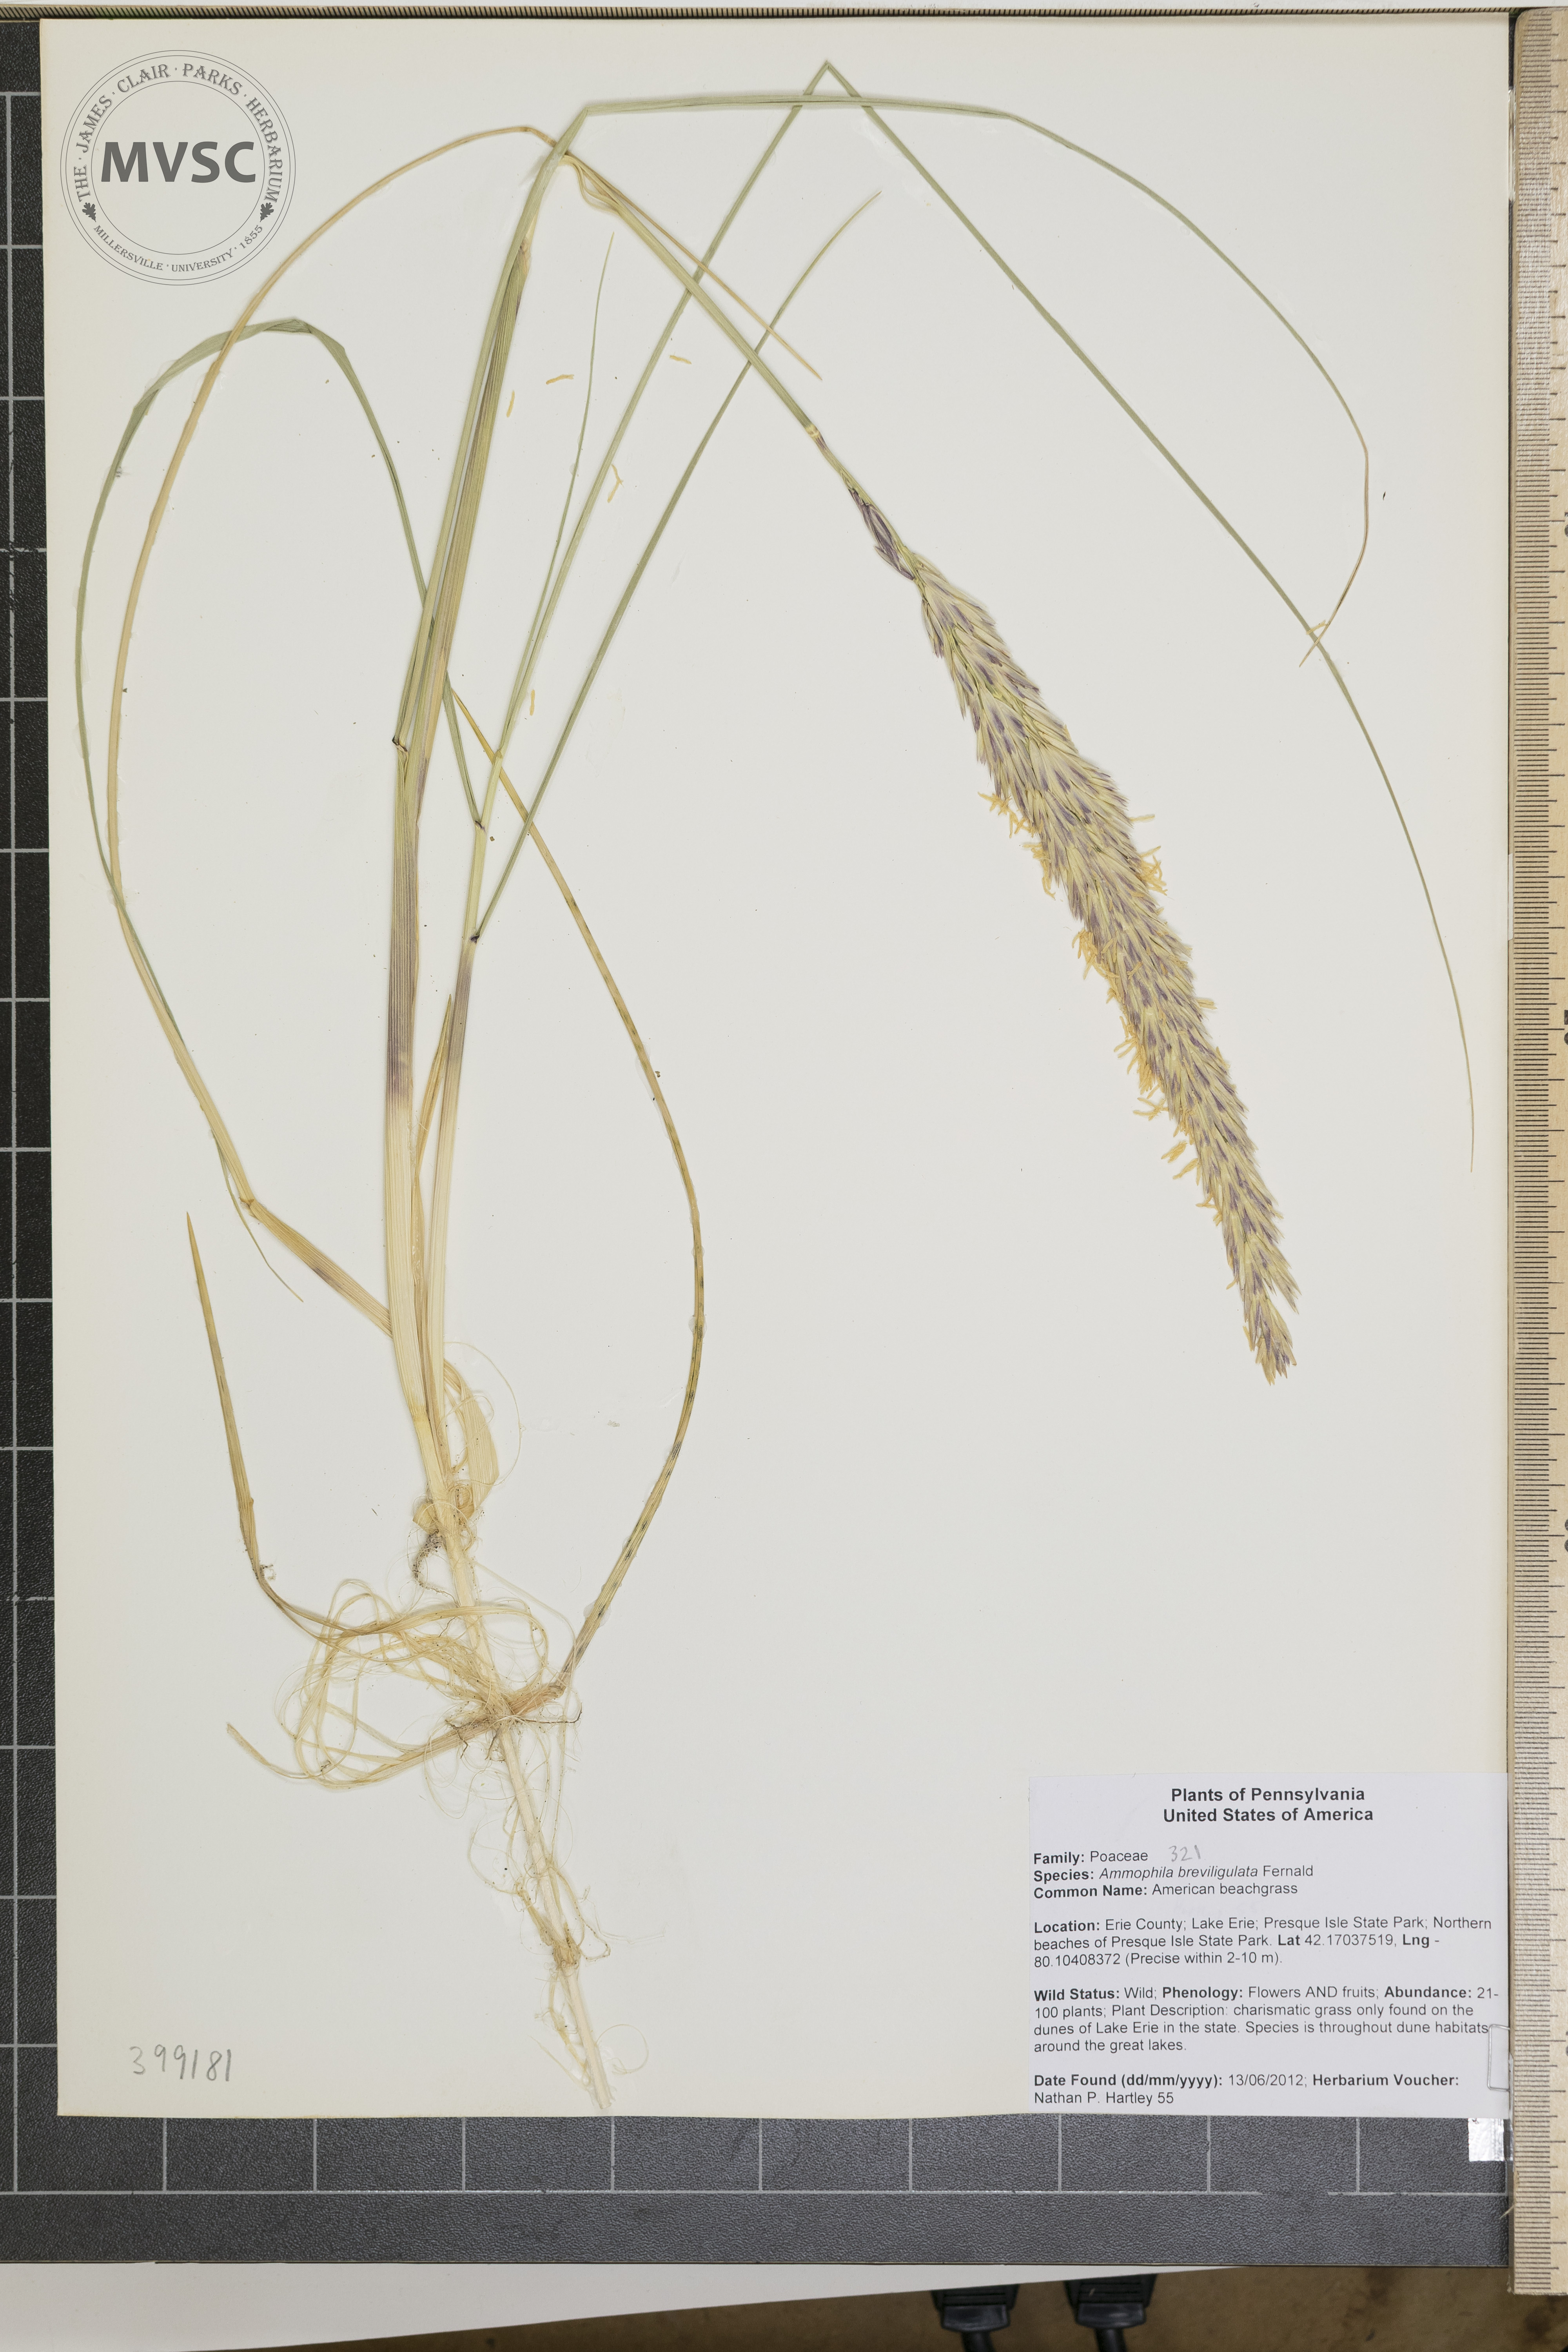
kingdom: Plantae
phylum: Tracheophyta
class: Liliopsida
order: Poales
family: Poaceae
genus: Calamagrostis
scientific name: Calamagrostis breviligulata
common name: American beachgrass
